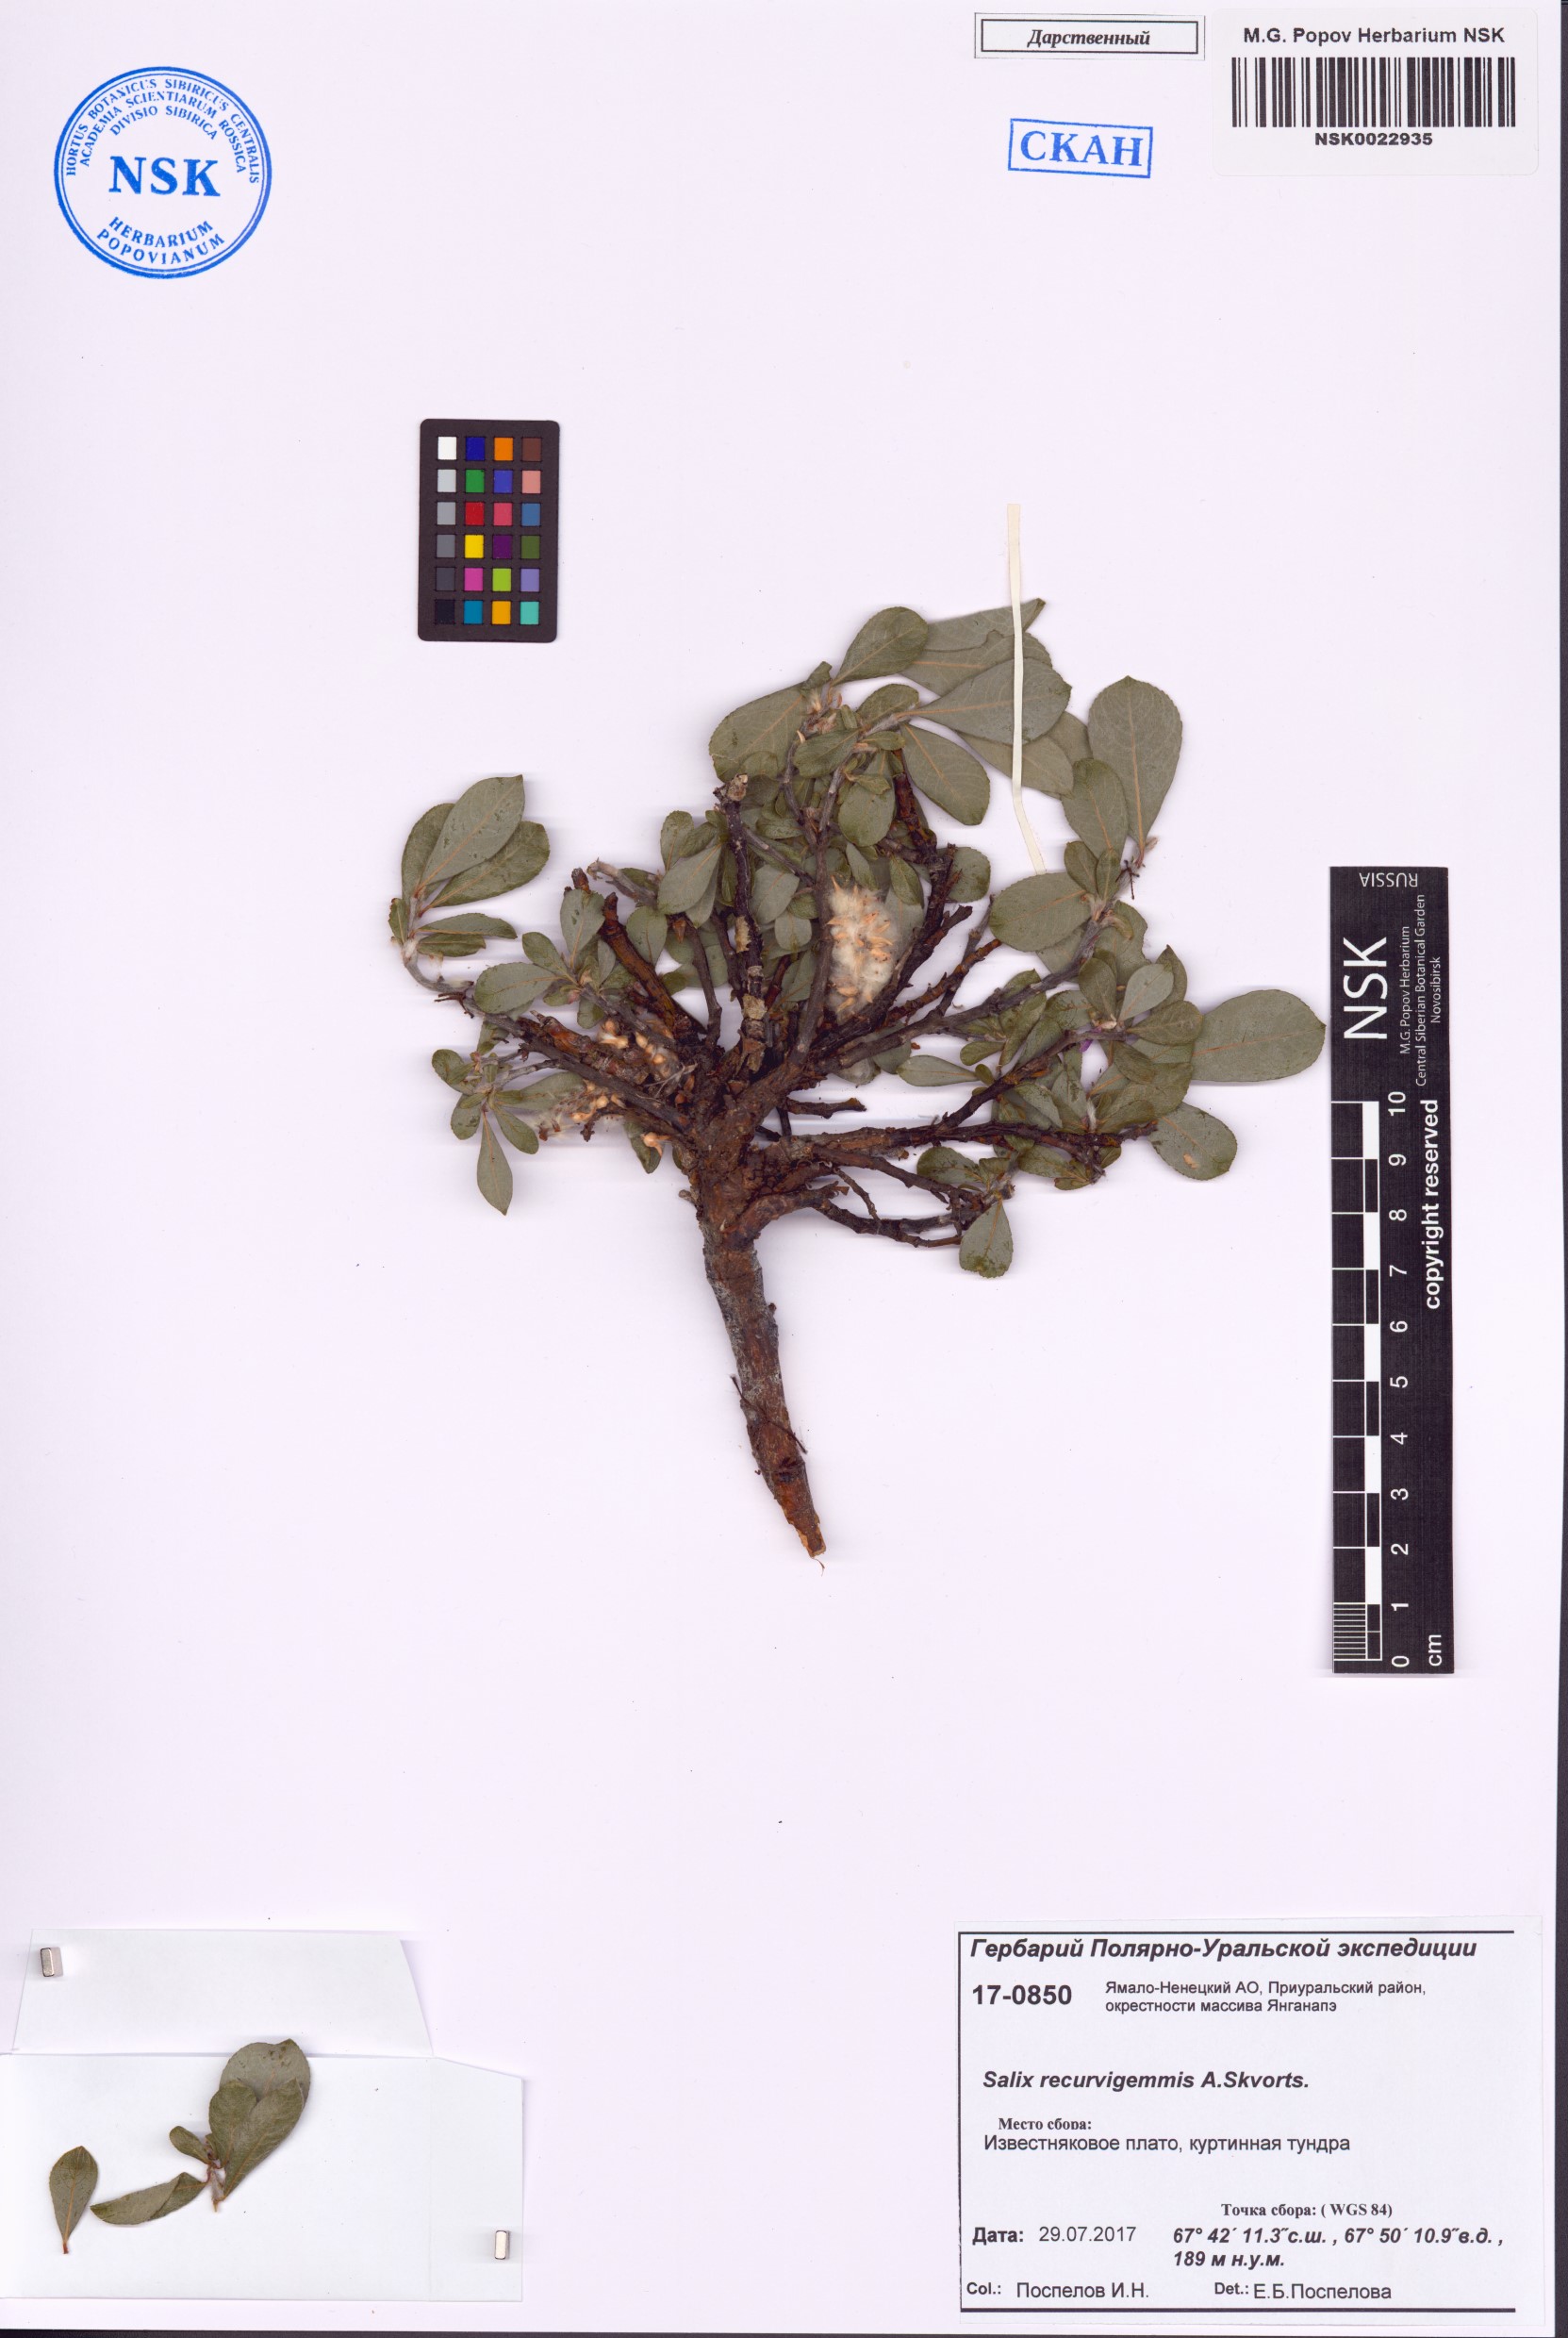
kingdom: Plantae
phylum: Tracheophyta
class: Magnoliopsida
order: Malpighiales
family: Salicaceae
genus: Salix
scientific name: Salix recurvigemmata
